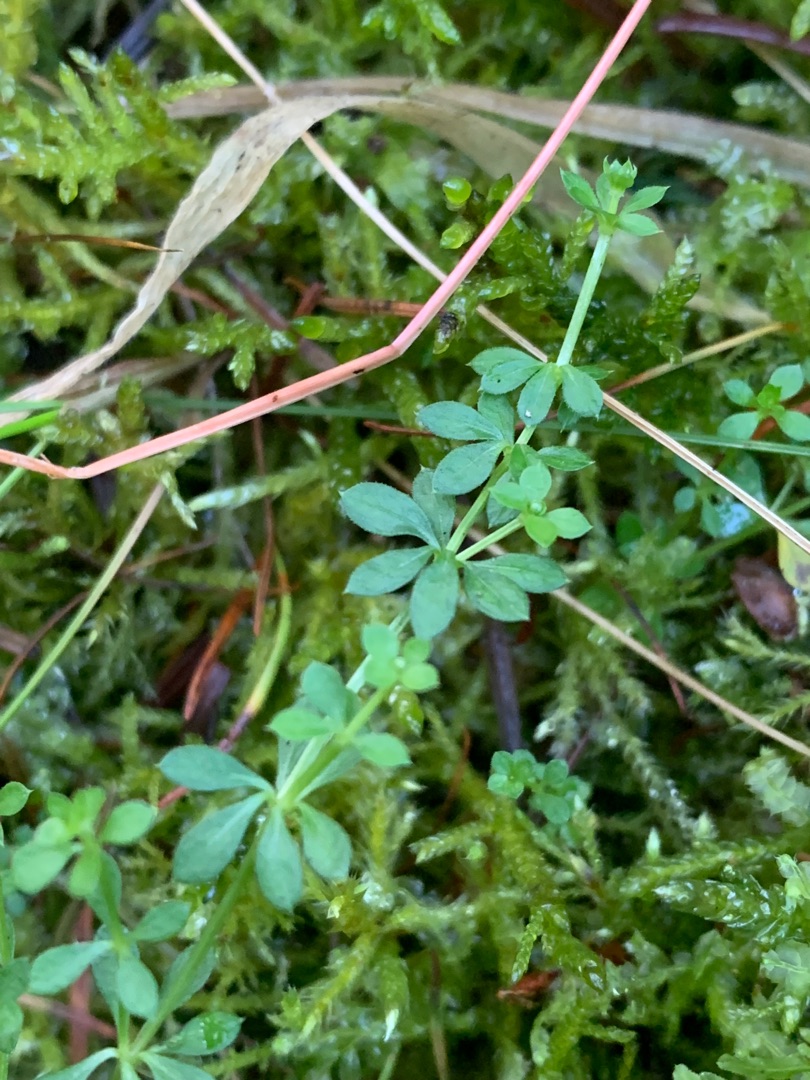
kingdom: Plantae
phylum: Tracheophyta
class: Magnoliopsida
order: Gentianales
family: Rubiaceae
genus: Galium
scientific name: Galium saxatile
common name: Lyng-snerre
